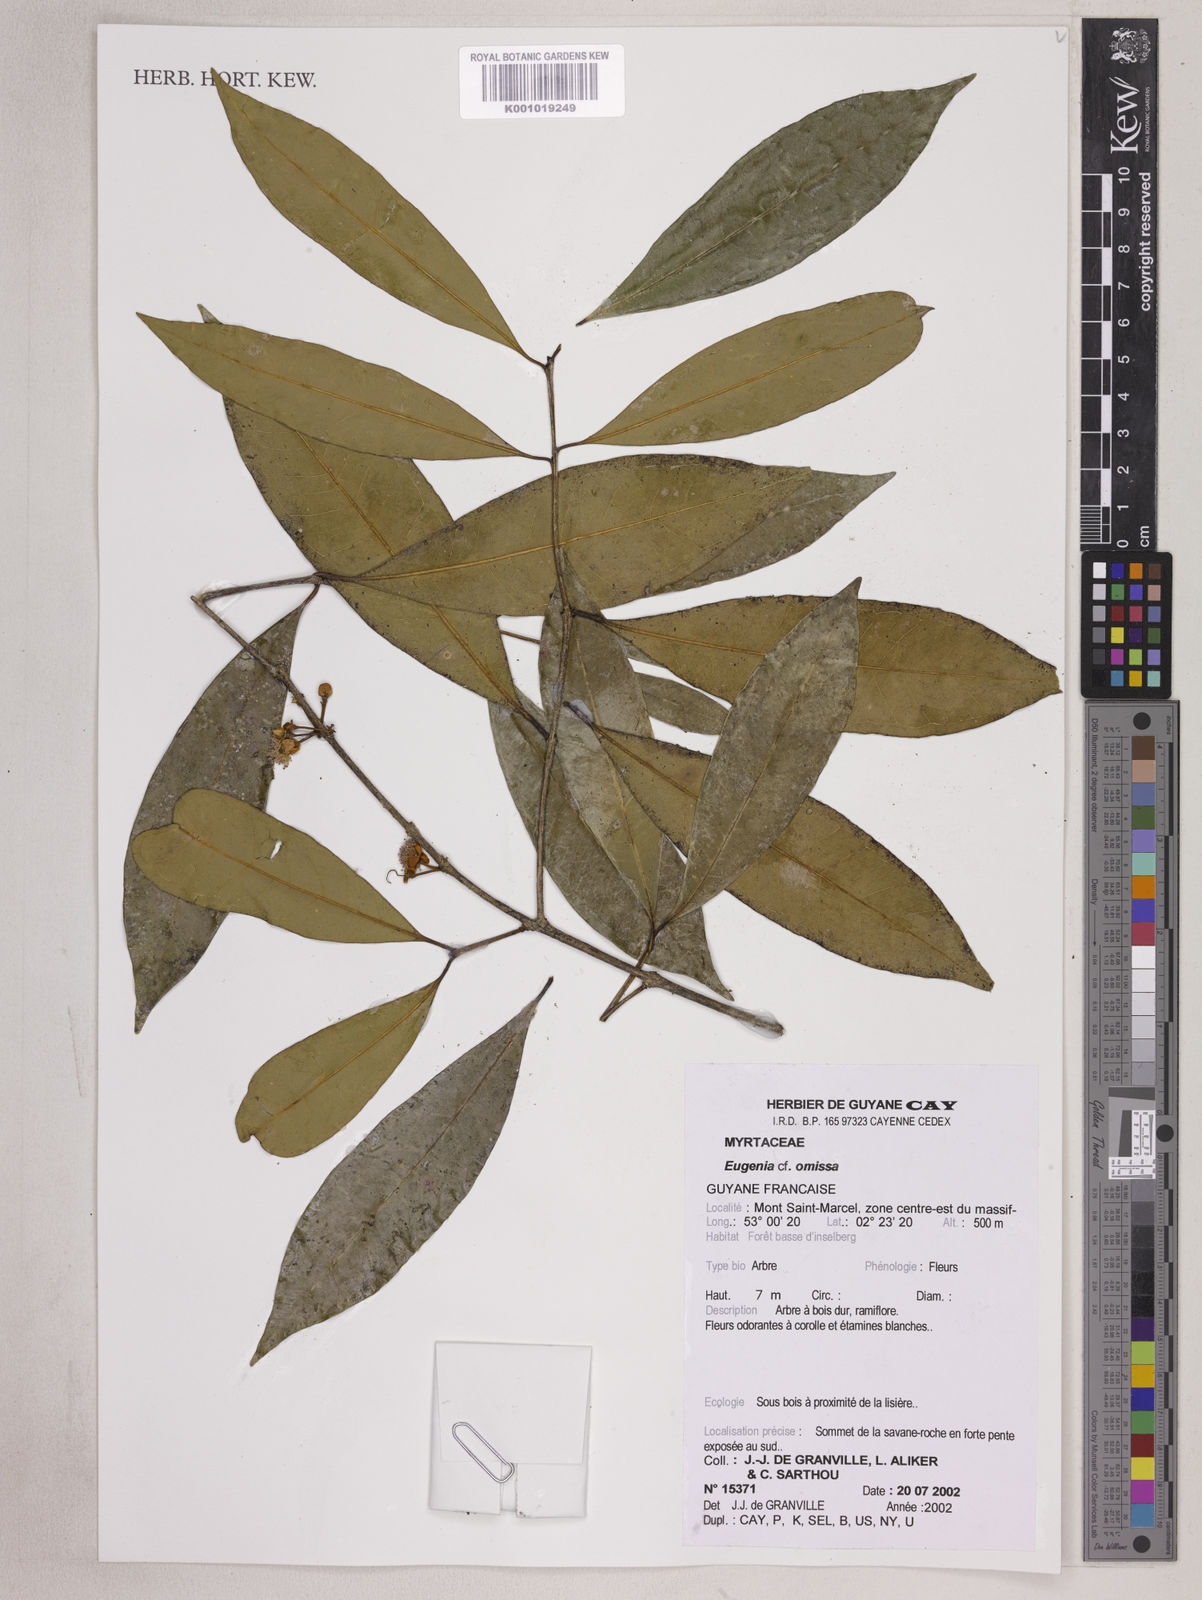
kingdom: Plantae
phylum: Tracheophyta
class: Magnoliopsida
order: Myrtales
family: Myrtaceae
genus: Eugenia
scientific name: Eugenia omissa
